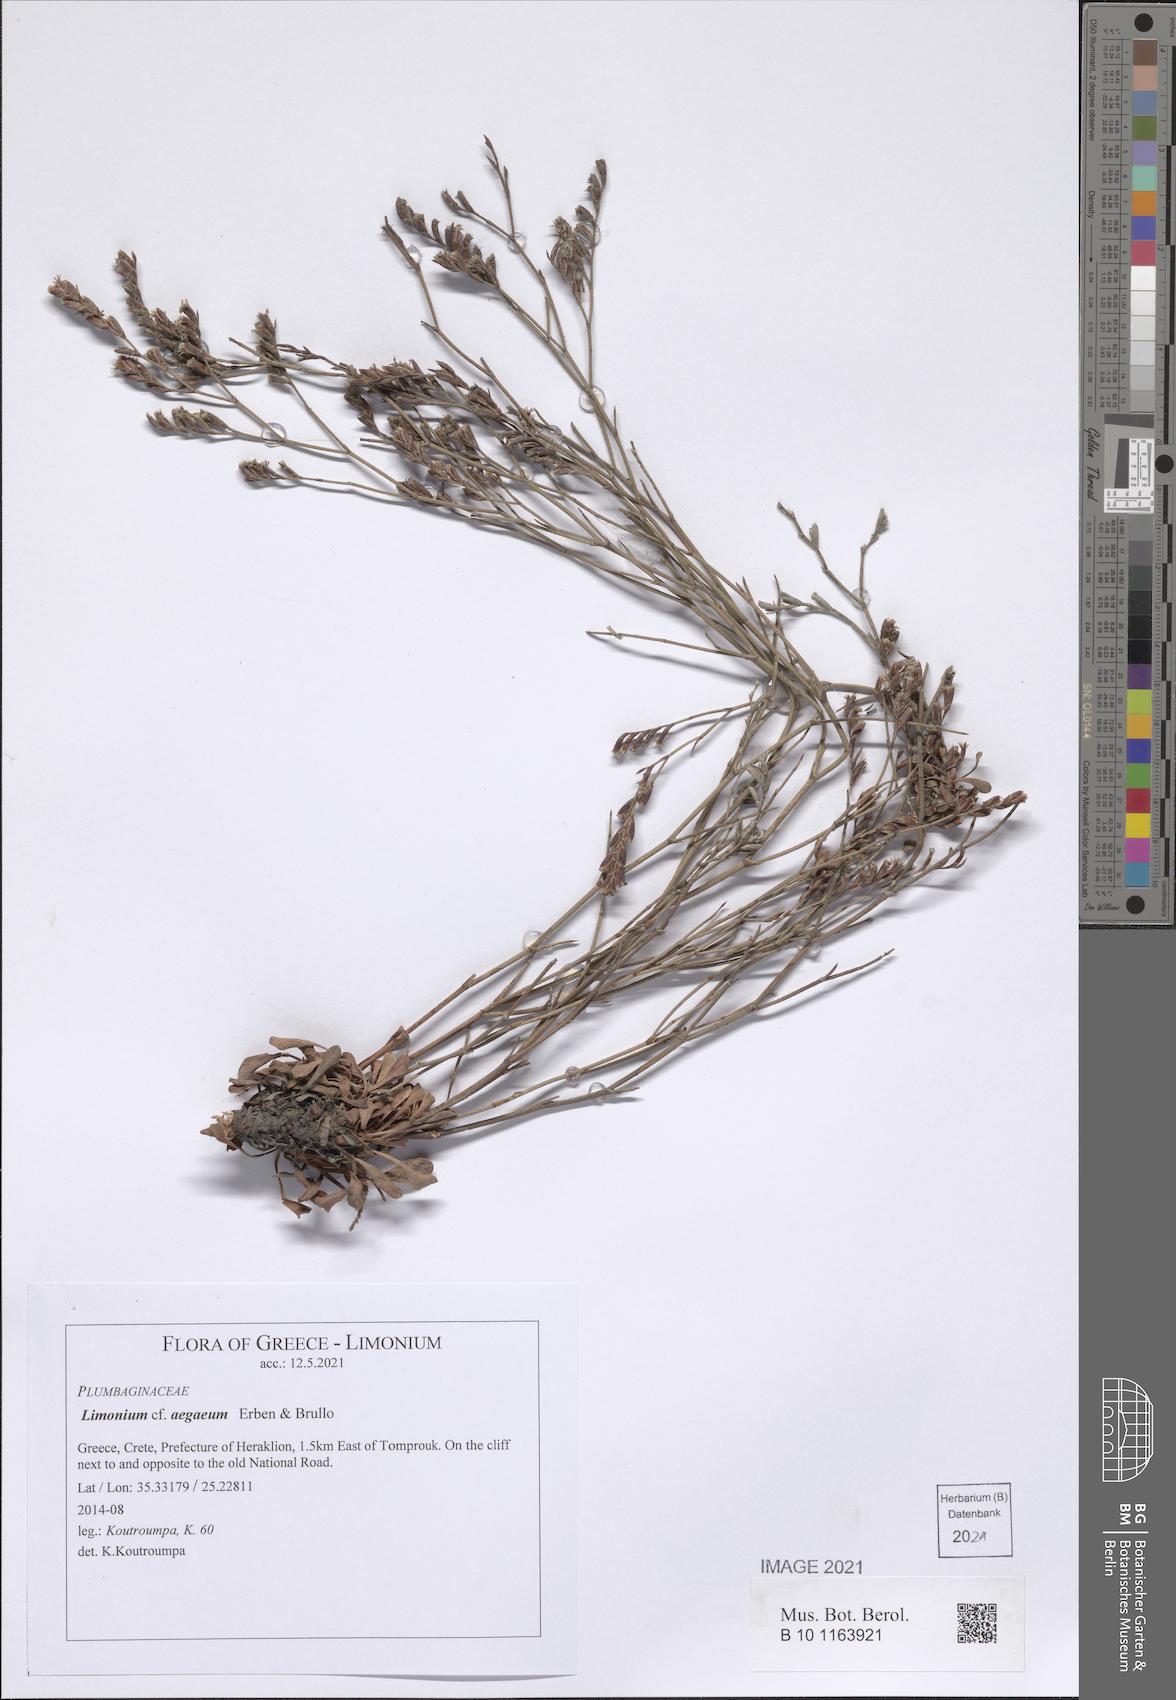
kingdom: Plantae
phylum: Tracheophyta
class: Magnoliopsida
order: Caryophyllales
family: Plumbaginaceae
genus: Limonium
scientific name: Limonium aegaeum
